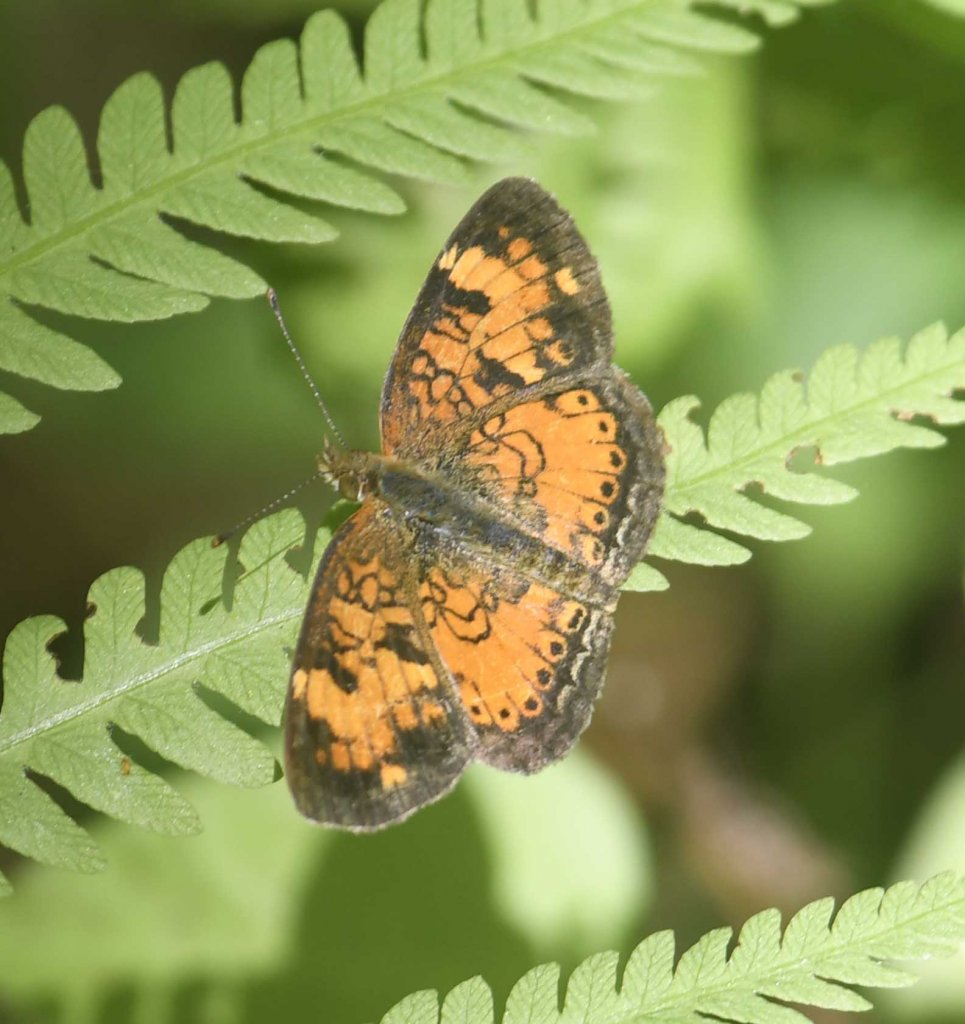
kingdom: Animalia
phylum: Arthropoda
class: Insecta
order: Lepidoptera
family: Nymphalidae
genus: Phyciodes
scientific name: Phyciodes tharos
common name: Northern Crescent
